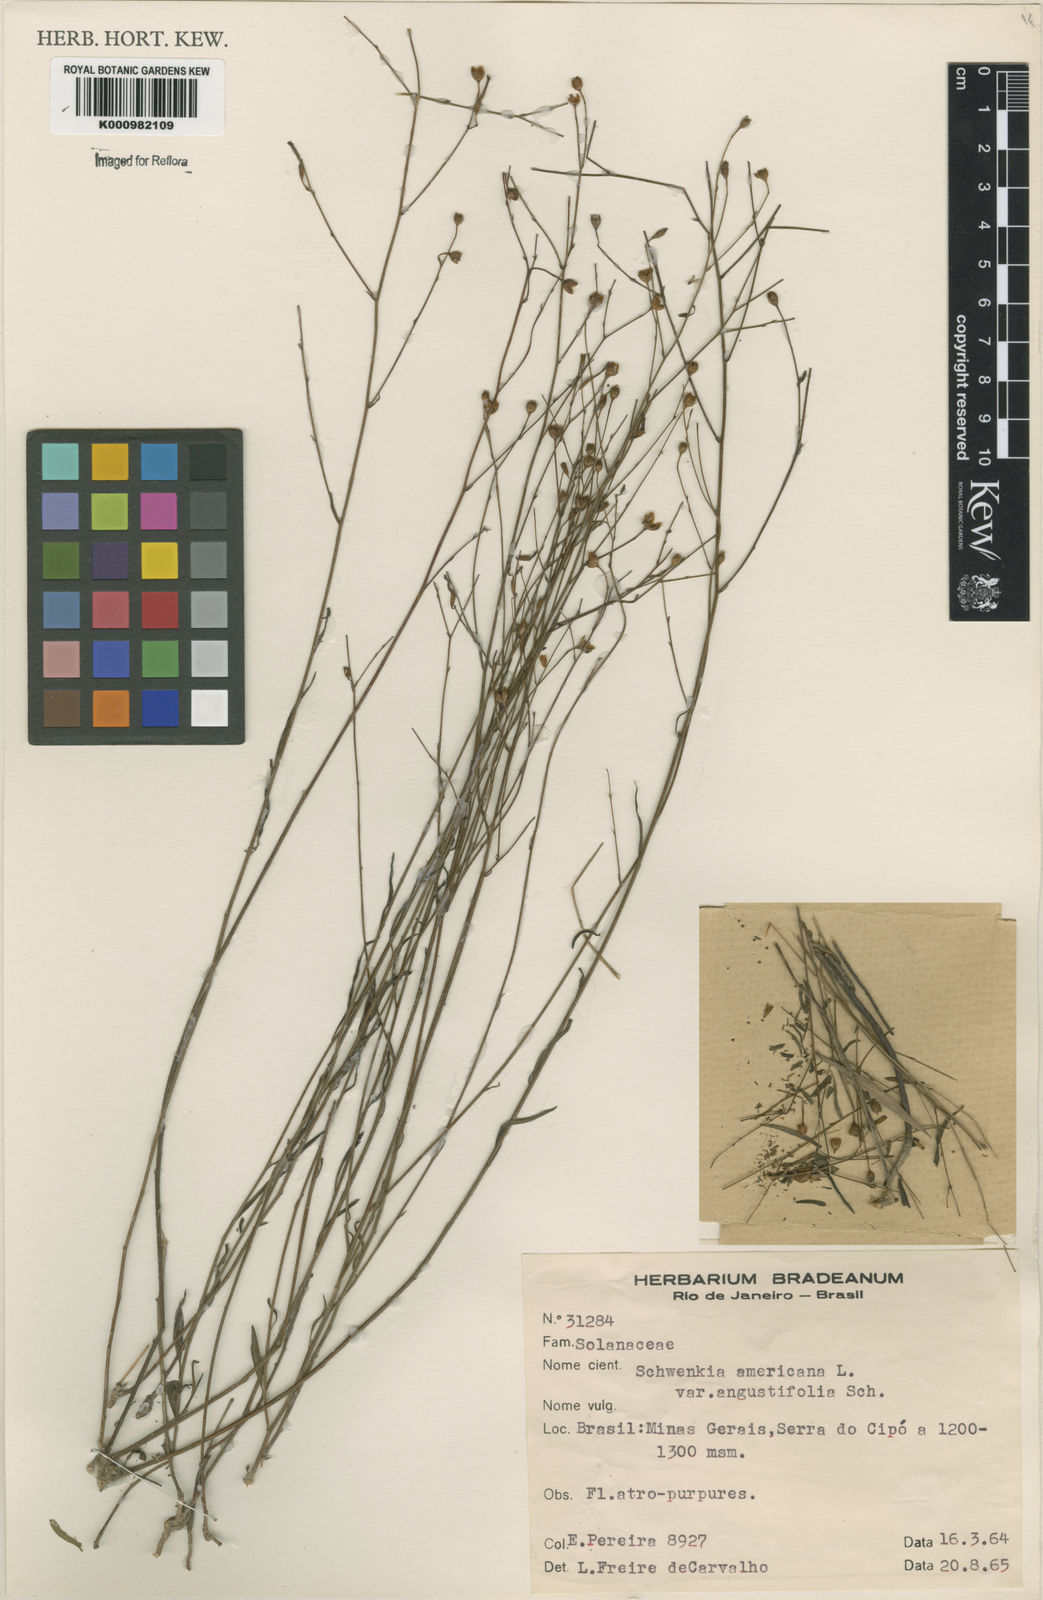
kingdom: Plantae
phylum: Tracheophyta
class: Magnoliopsida
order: Solanales
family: Solanaceae
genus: Schwenckia
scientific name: Schwenckia americana
